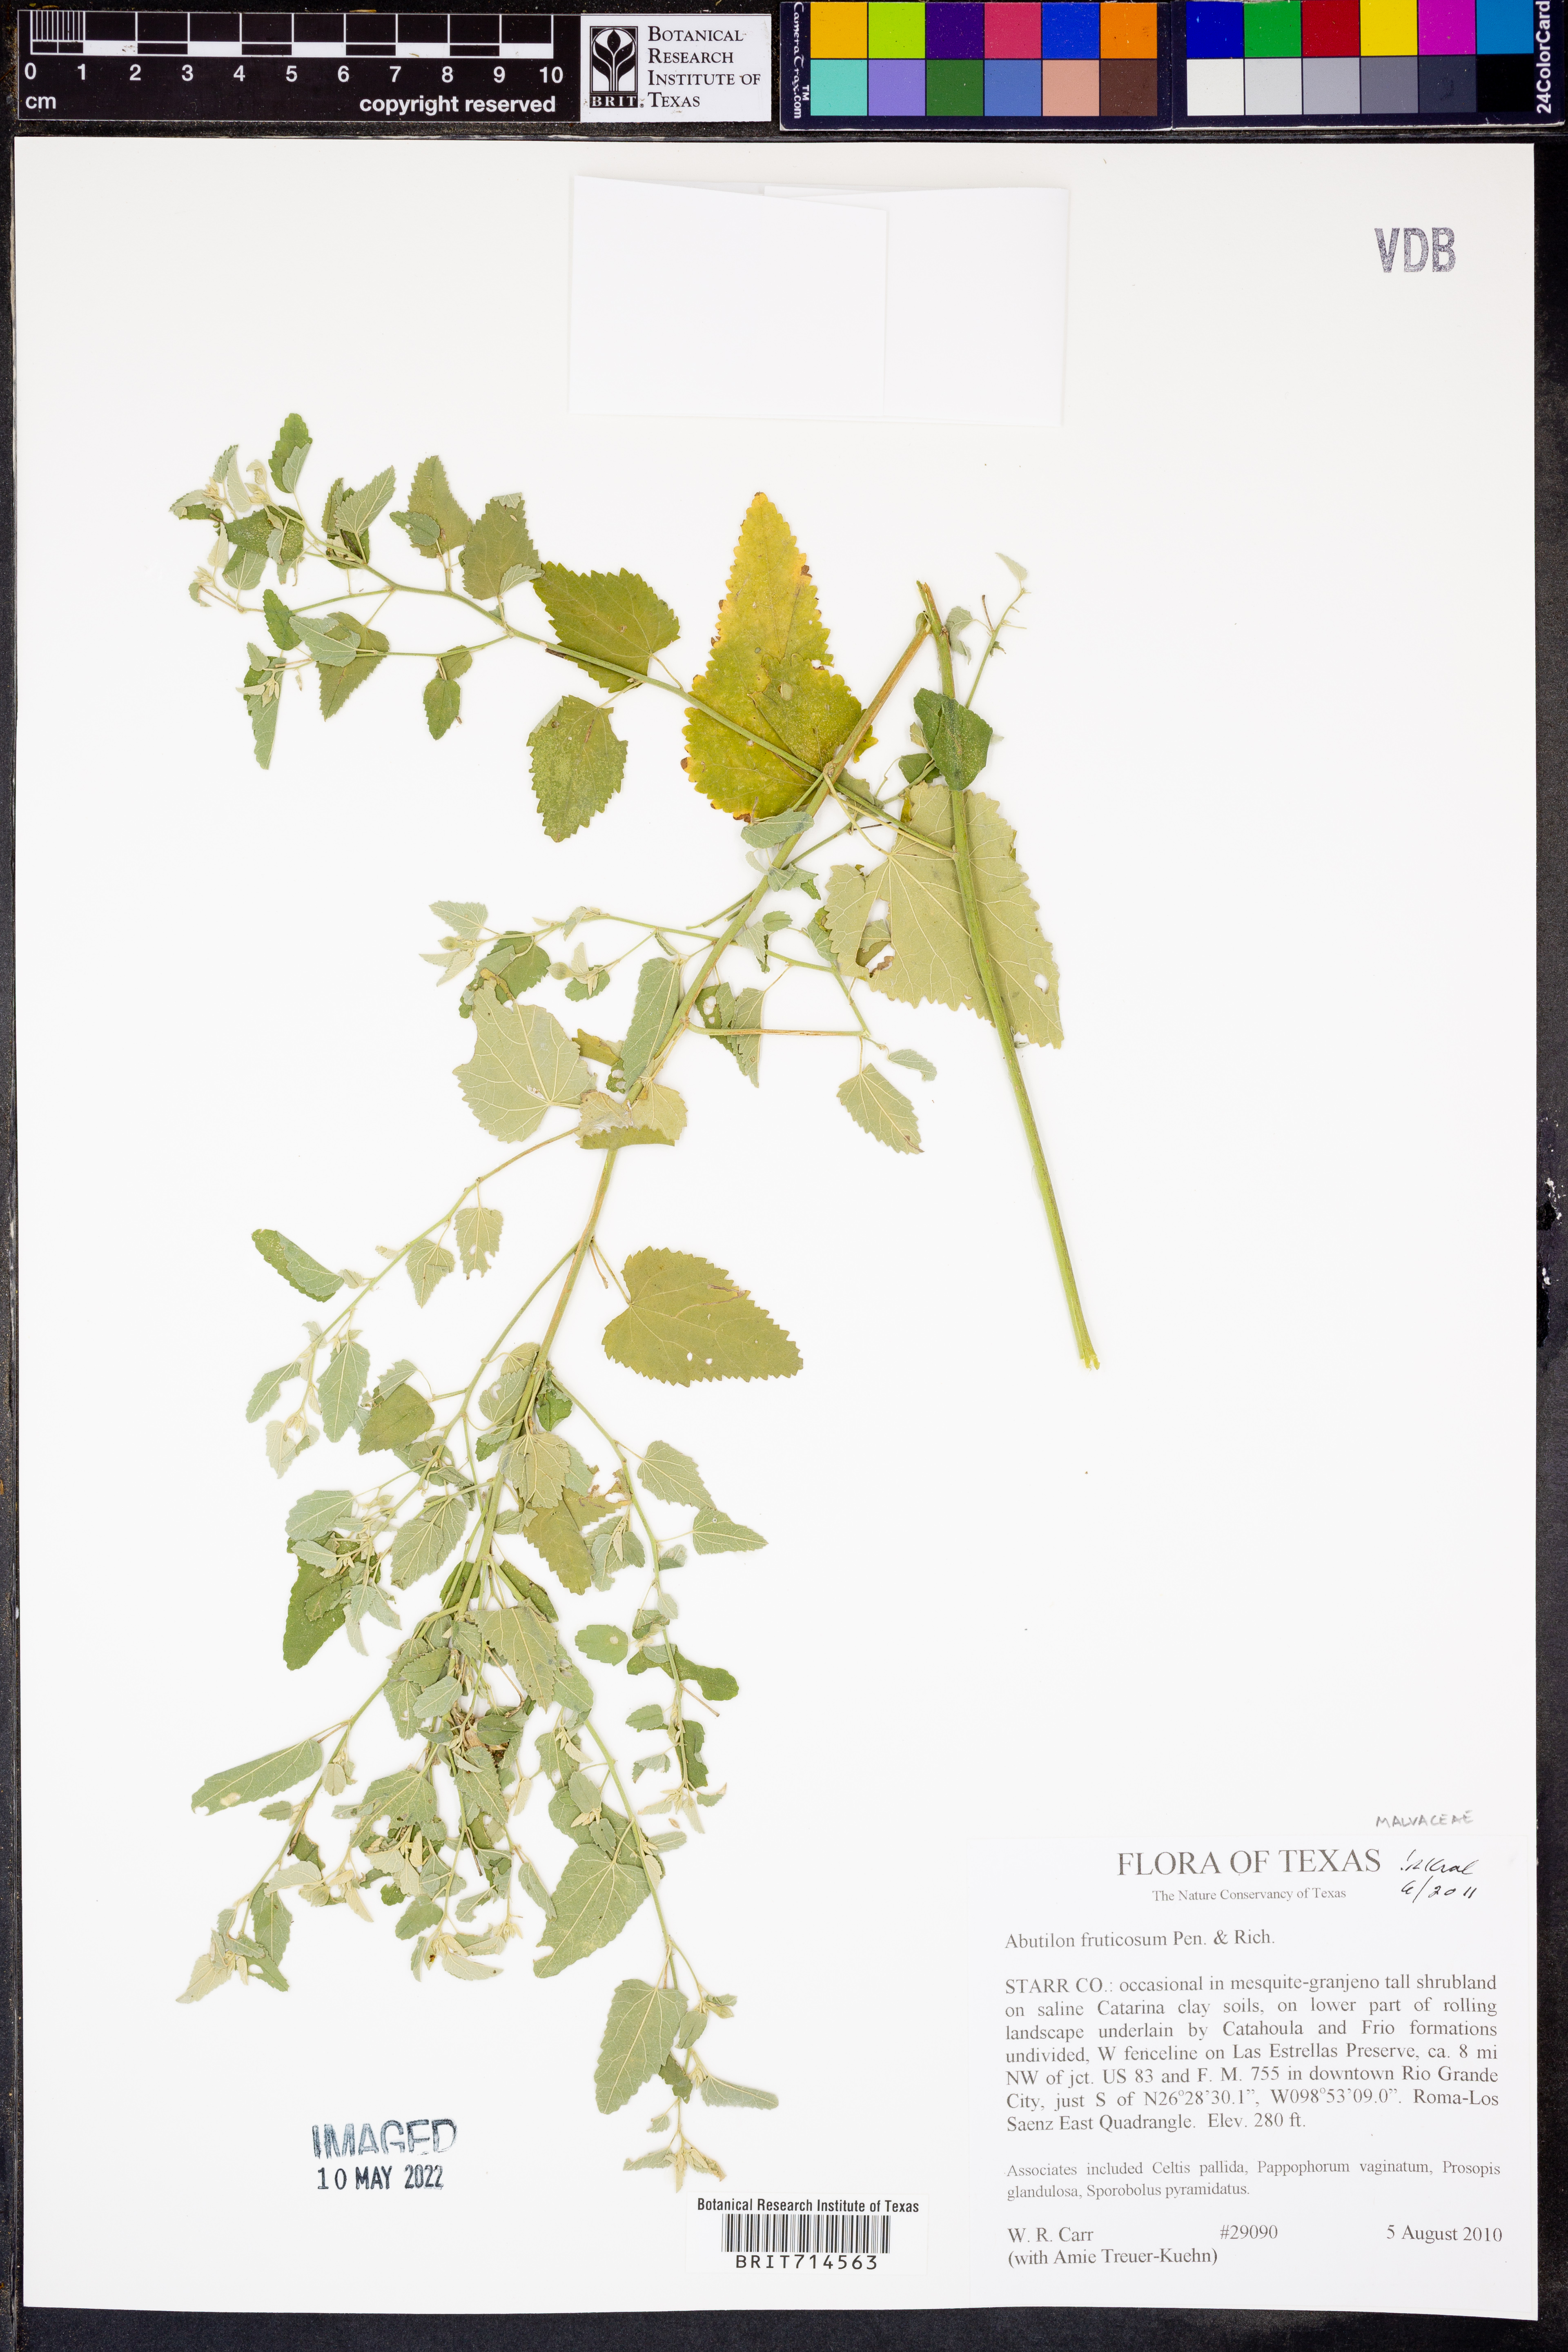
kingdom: Plantae
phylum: Tracheophyta
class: Magnoliopsida
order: Malvales
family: Malvaceae
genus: Abutilon
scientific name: Abutilon fruticosum
